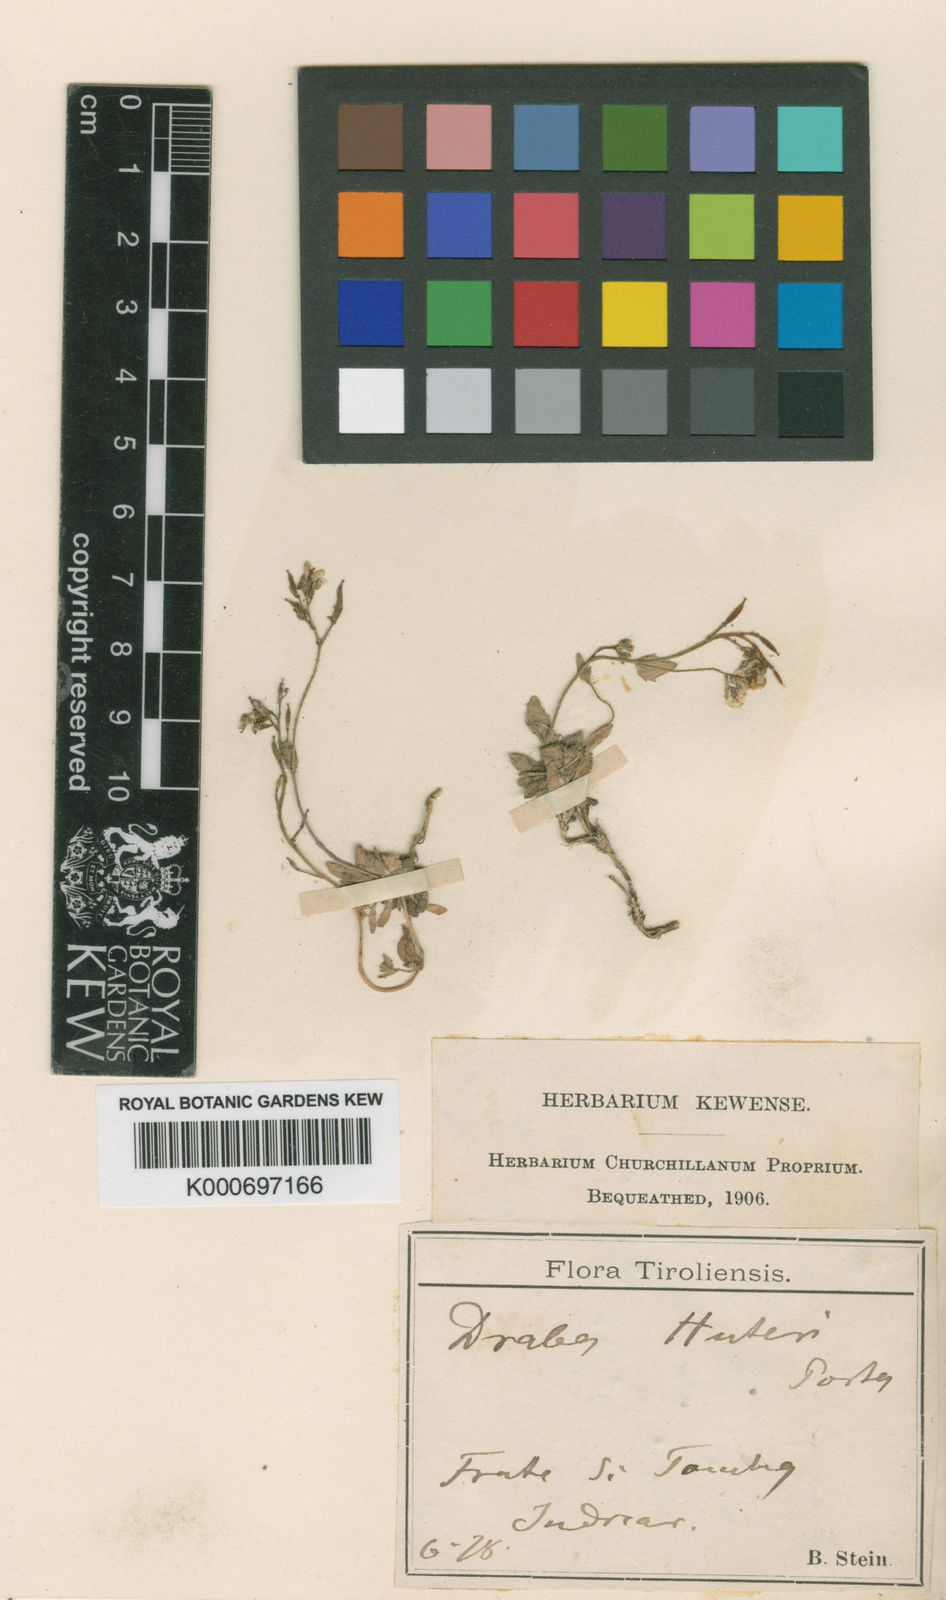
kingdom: Plantae
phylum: Tracheophyta
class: Magnoliopsida
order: Brassicales
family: Brassicaceae
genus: Draba
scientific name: Draba dubia
